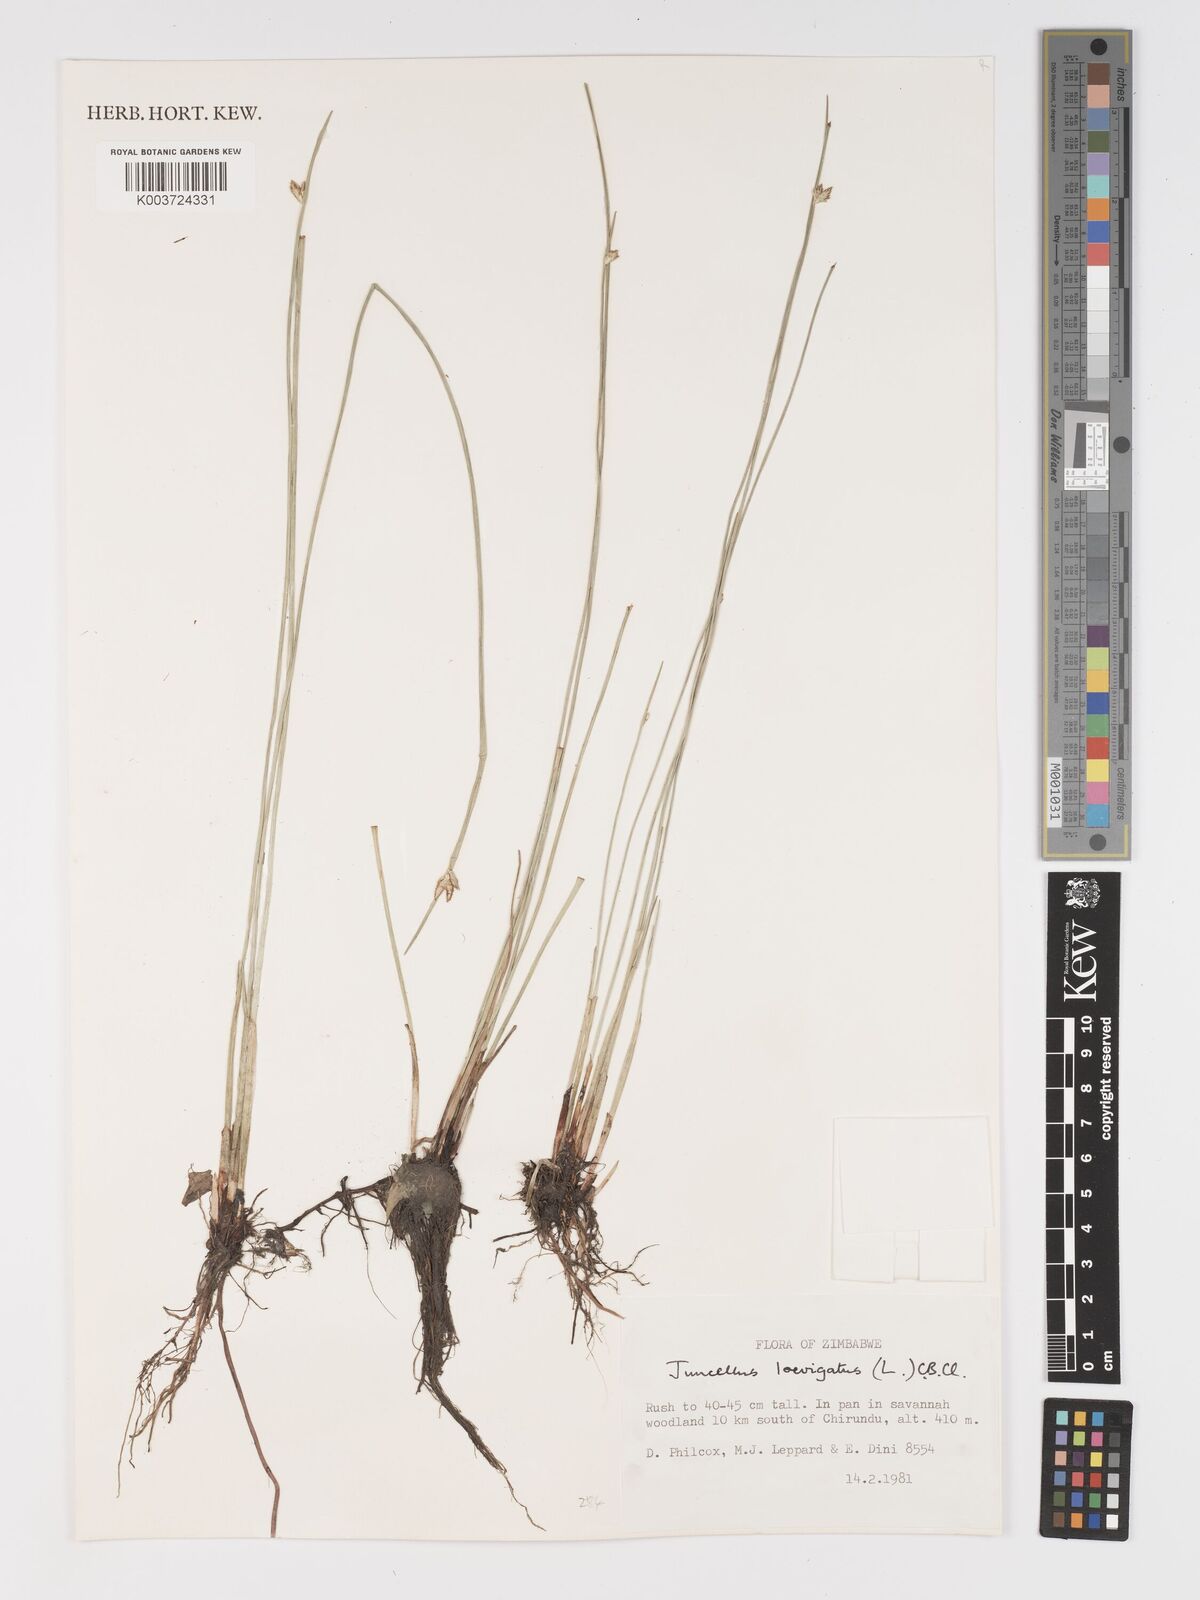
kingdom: Plantae
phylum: Tracheophyta
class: Liliopsida
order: Poales
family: Cyperaceae
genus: Cyperus
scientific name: Cyperus laevigatus
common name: Smooth flat sedge
